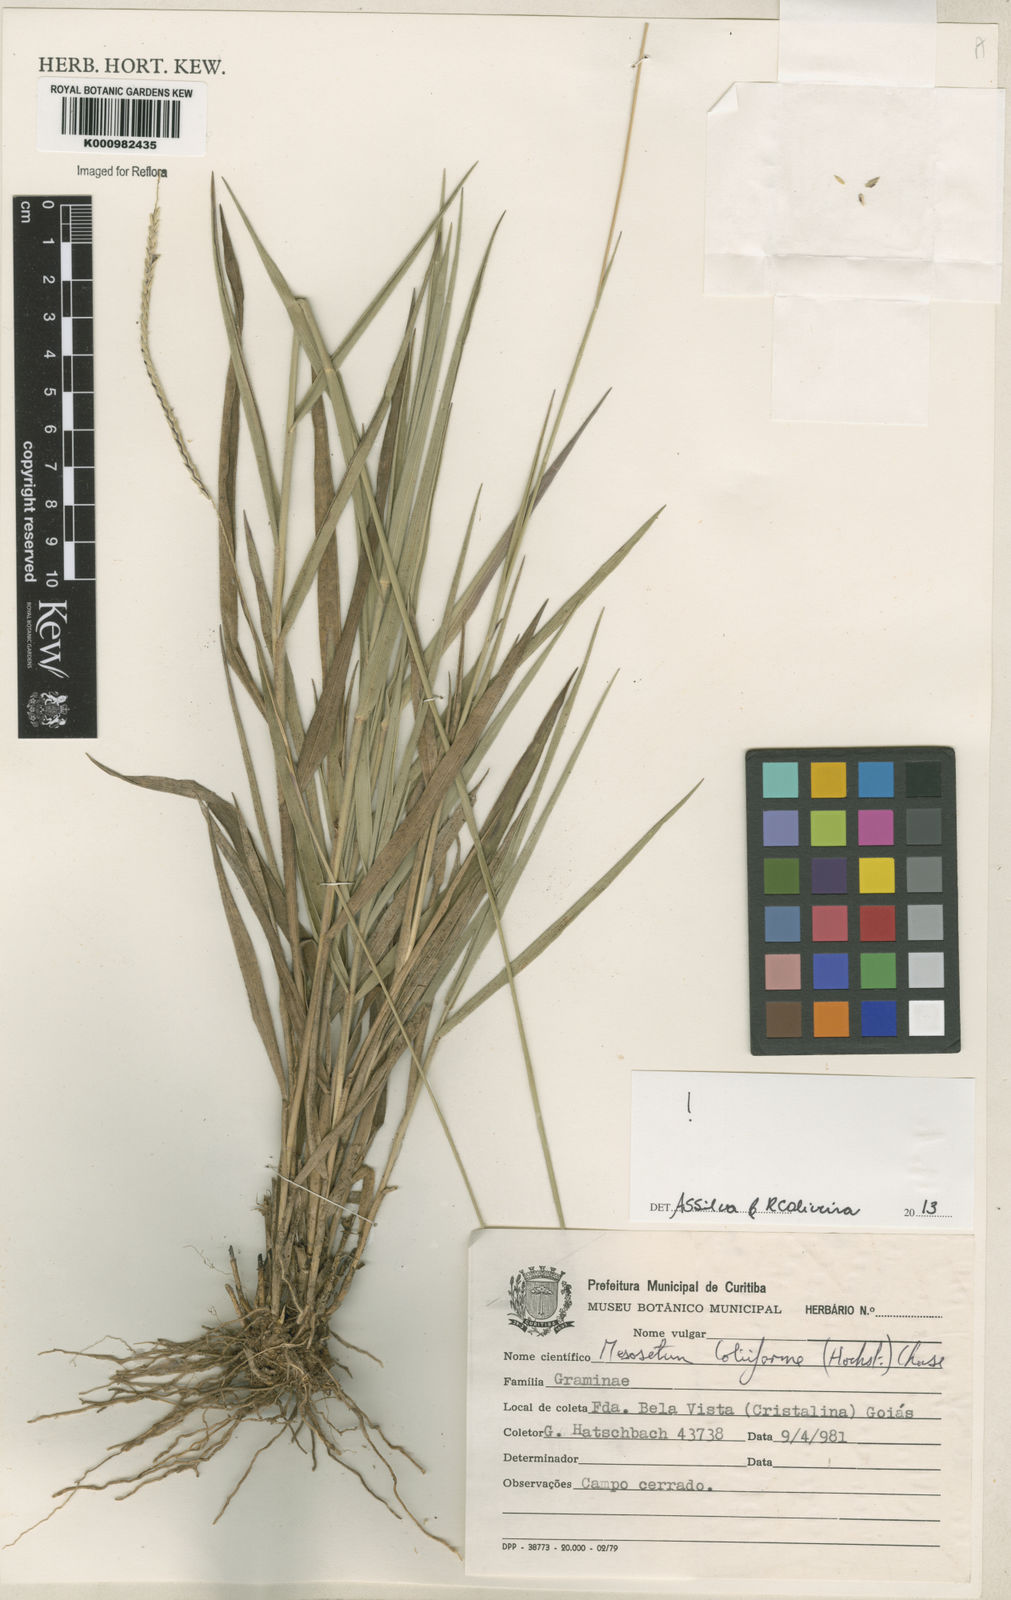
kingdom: Plantae
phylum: Tracheophyta
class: Liliopsida
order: Poales
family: Poaceae
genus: Mesosetum
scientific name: Mesosetum
